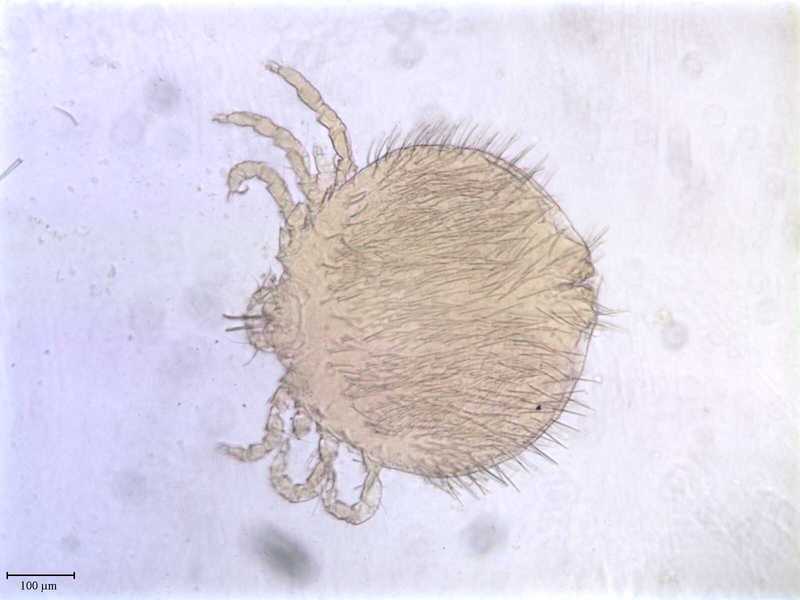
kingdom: Animalia
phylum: Arthropoda
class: Arachnida
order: Trombidiformes
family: Pterygosomatidae
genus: Geckobia
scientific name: Geckobia
